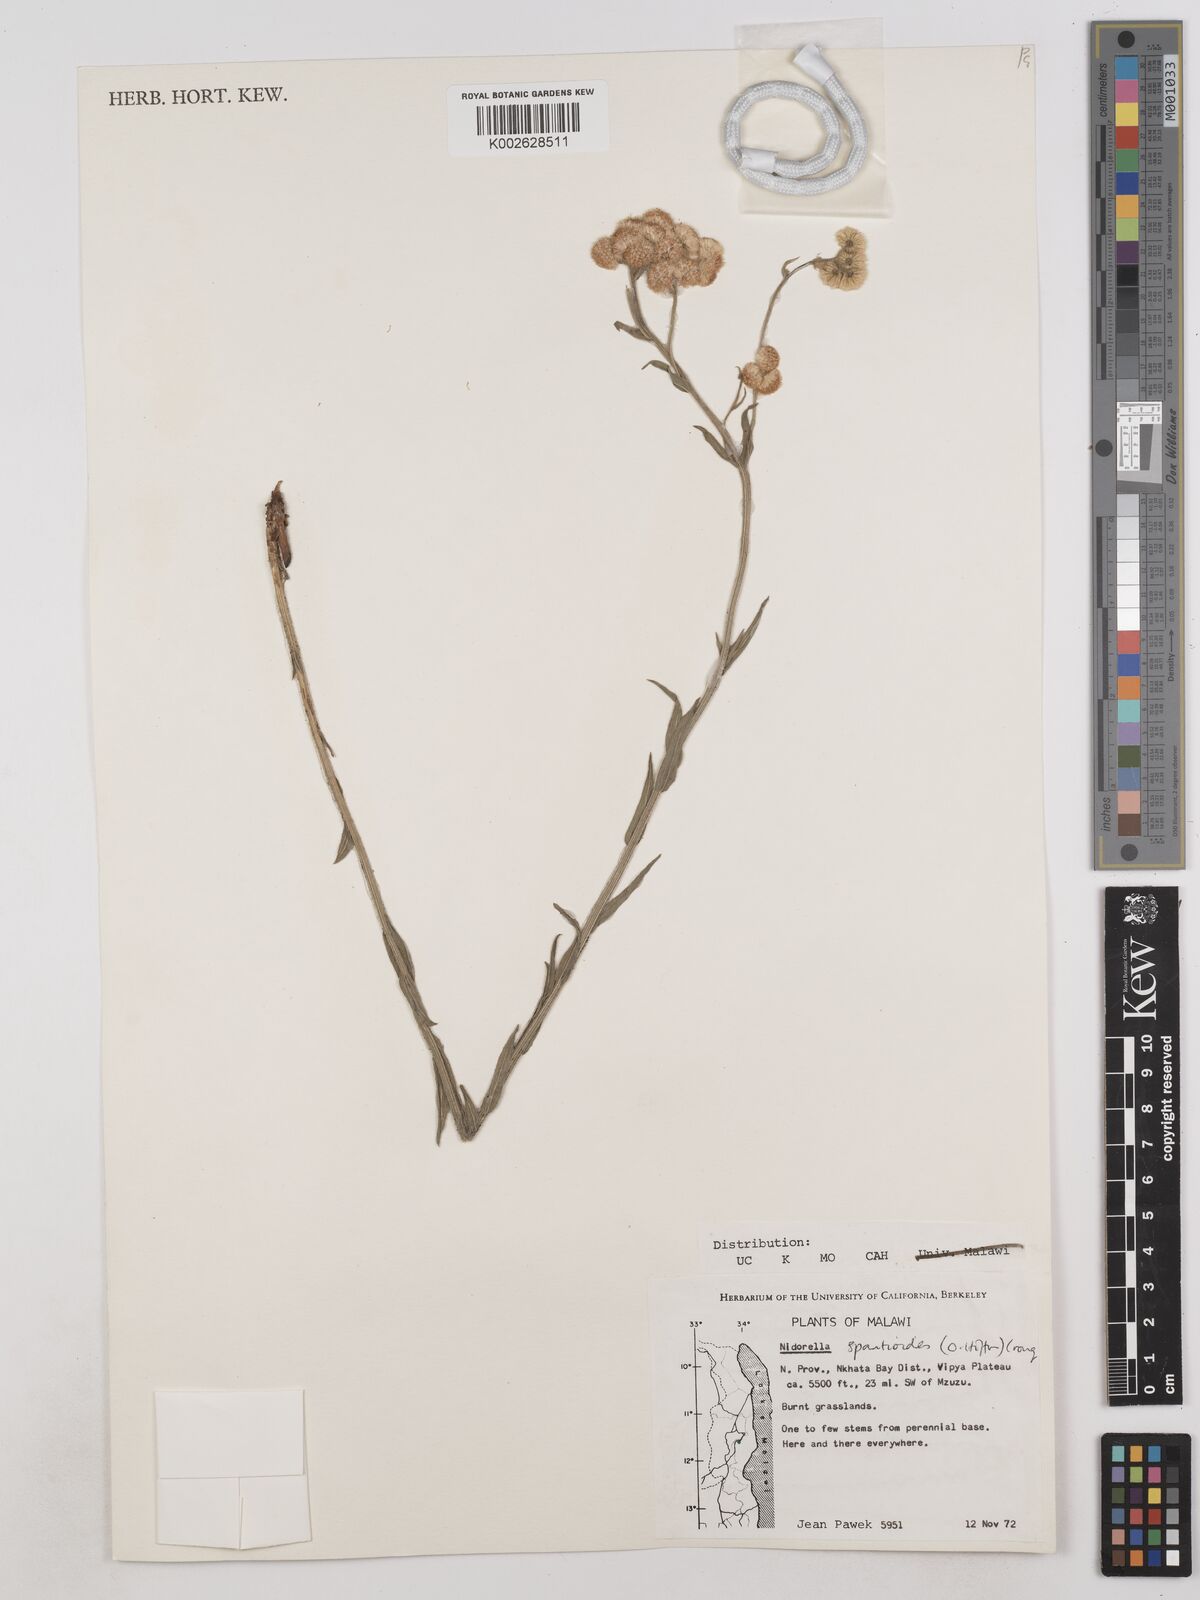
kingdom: Plantae
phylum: Tracheophyta
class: Magnoliopsida
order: Asterales
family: Asteraceae
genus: Nidorella
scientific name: Nidorella spartioides
